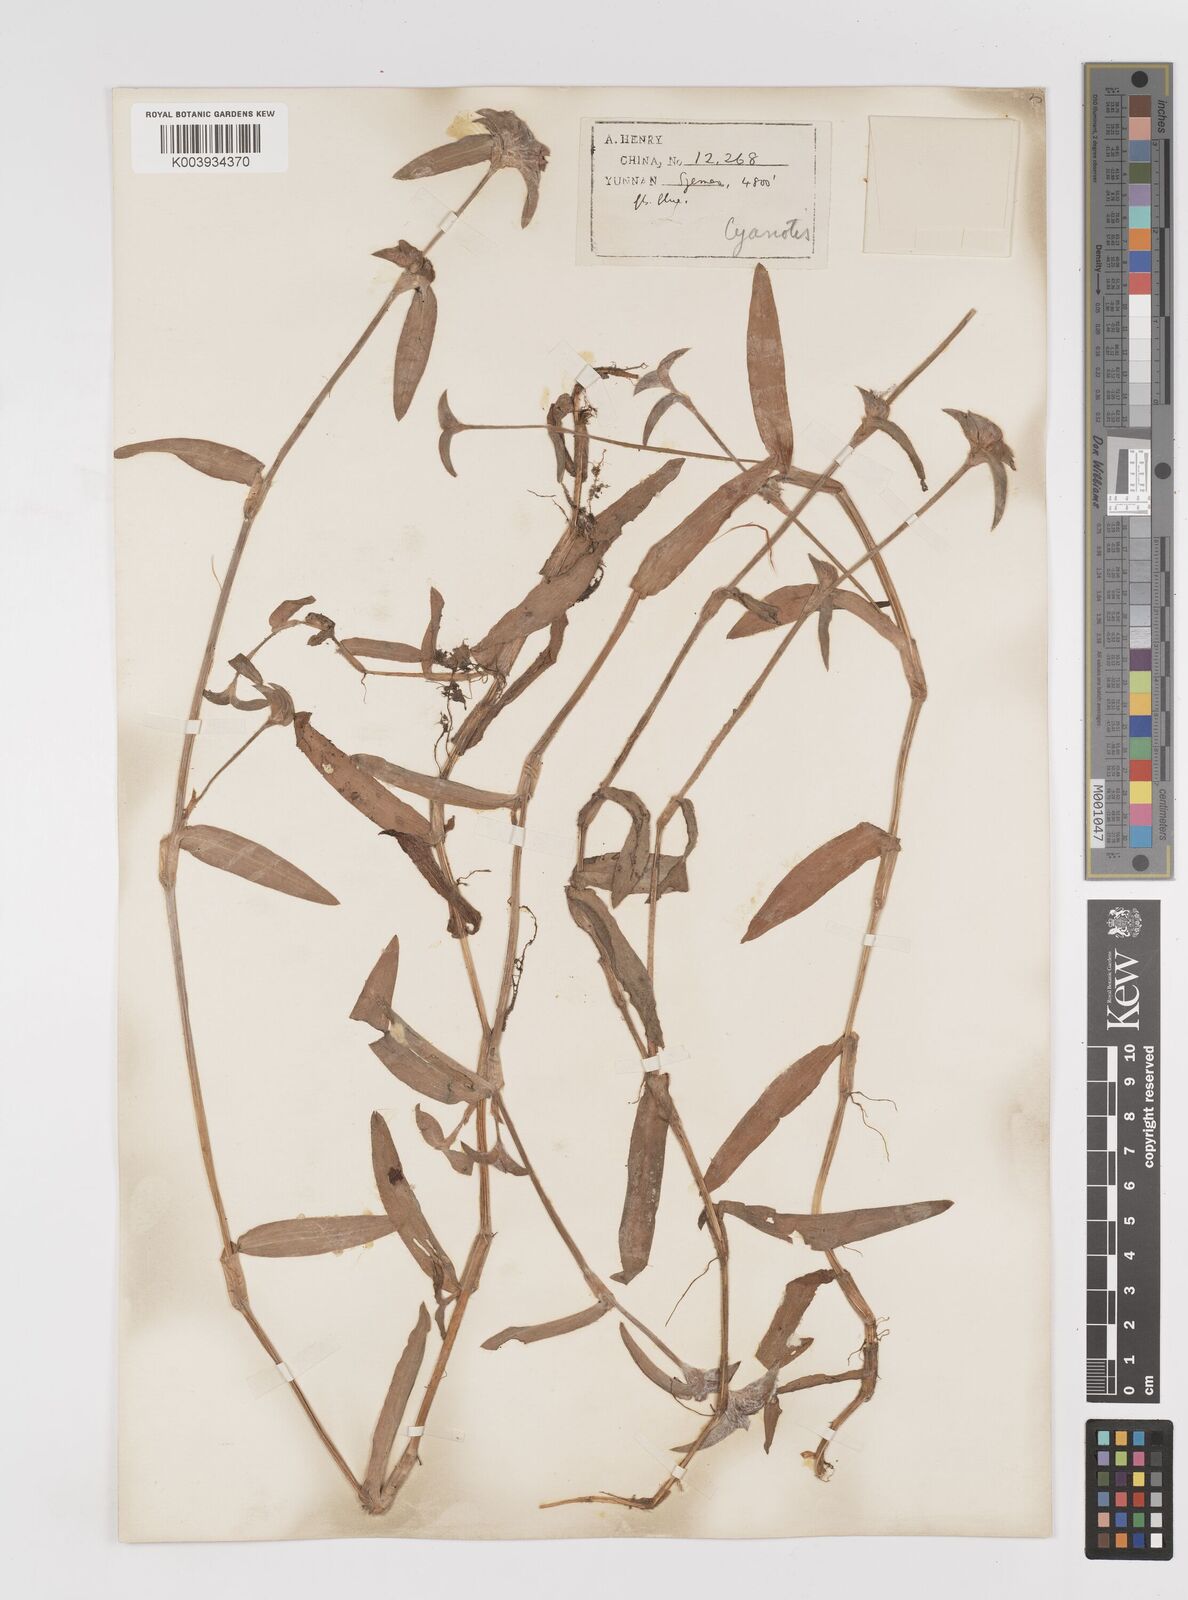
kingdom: Plantae
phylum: Tracheophyta
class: Liliopsida
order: Commelinales
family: Commelinaceae
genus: Cyanotis
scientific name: Cyanotis
